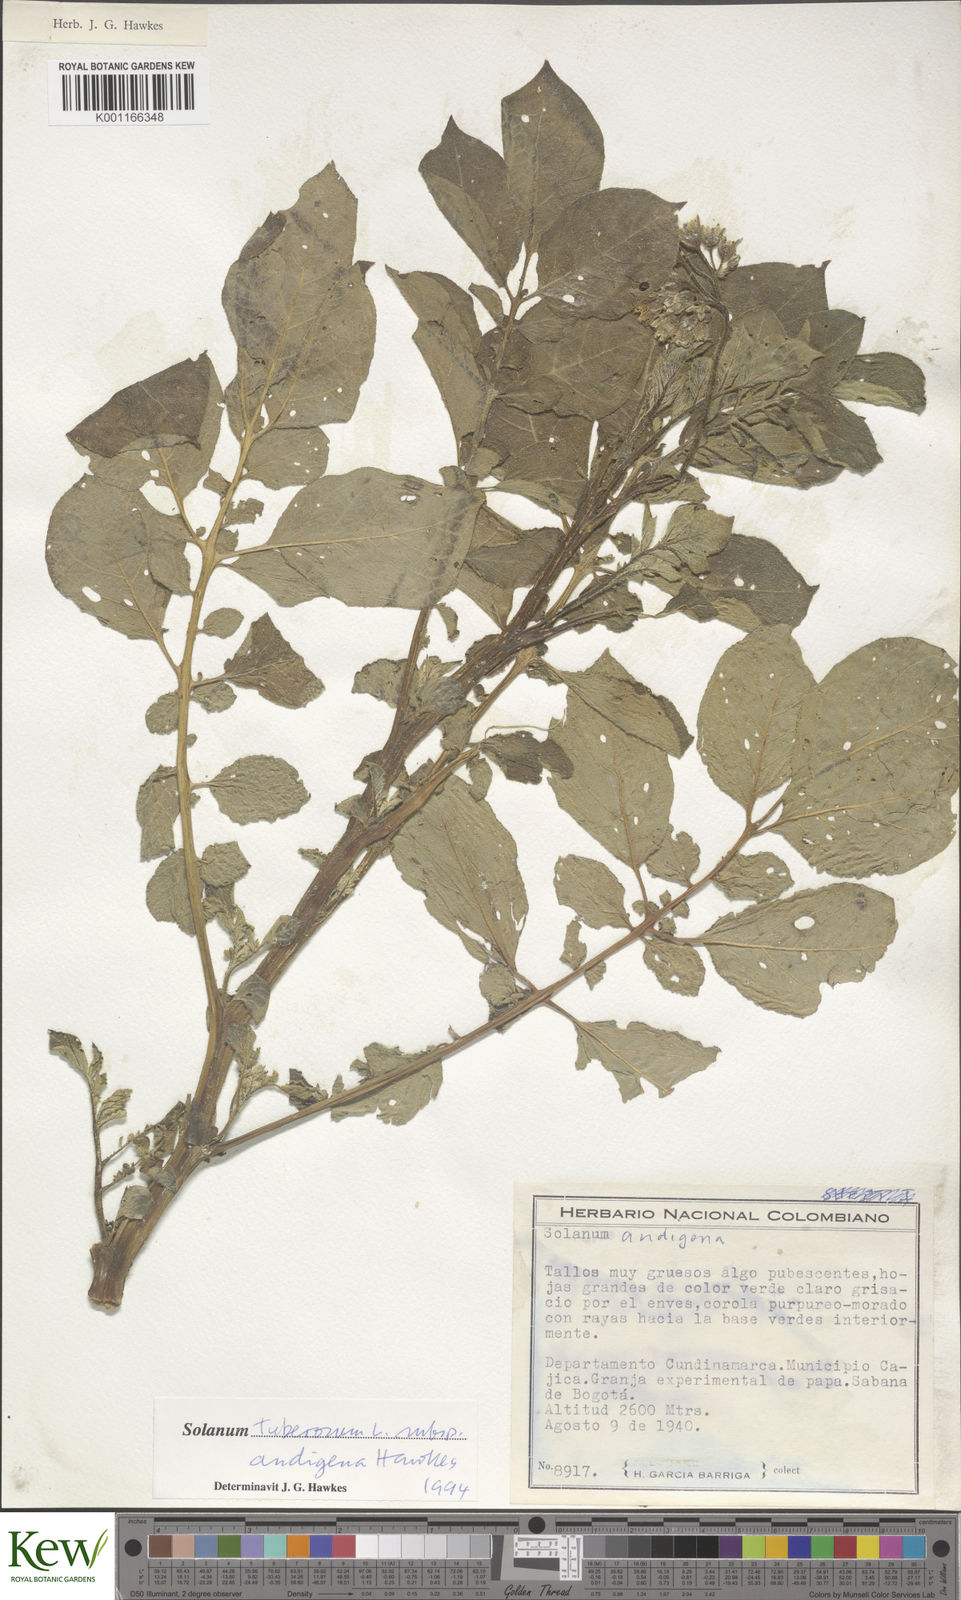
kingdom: Plantae
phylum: Tracheophyta
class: Magnoliopsida
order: Solanales
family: Solanaceae
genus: Solanum
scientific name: Solanum tuberosum
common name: Potato
